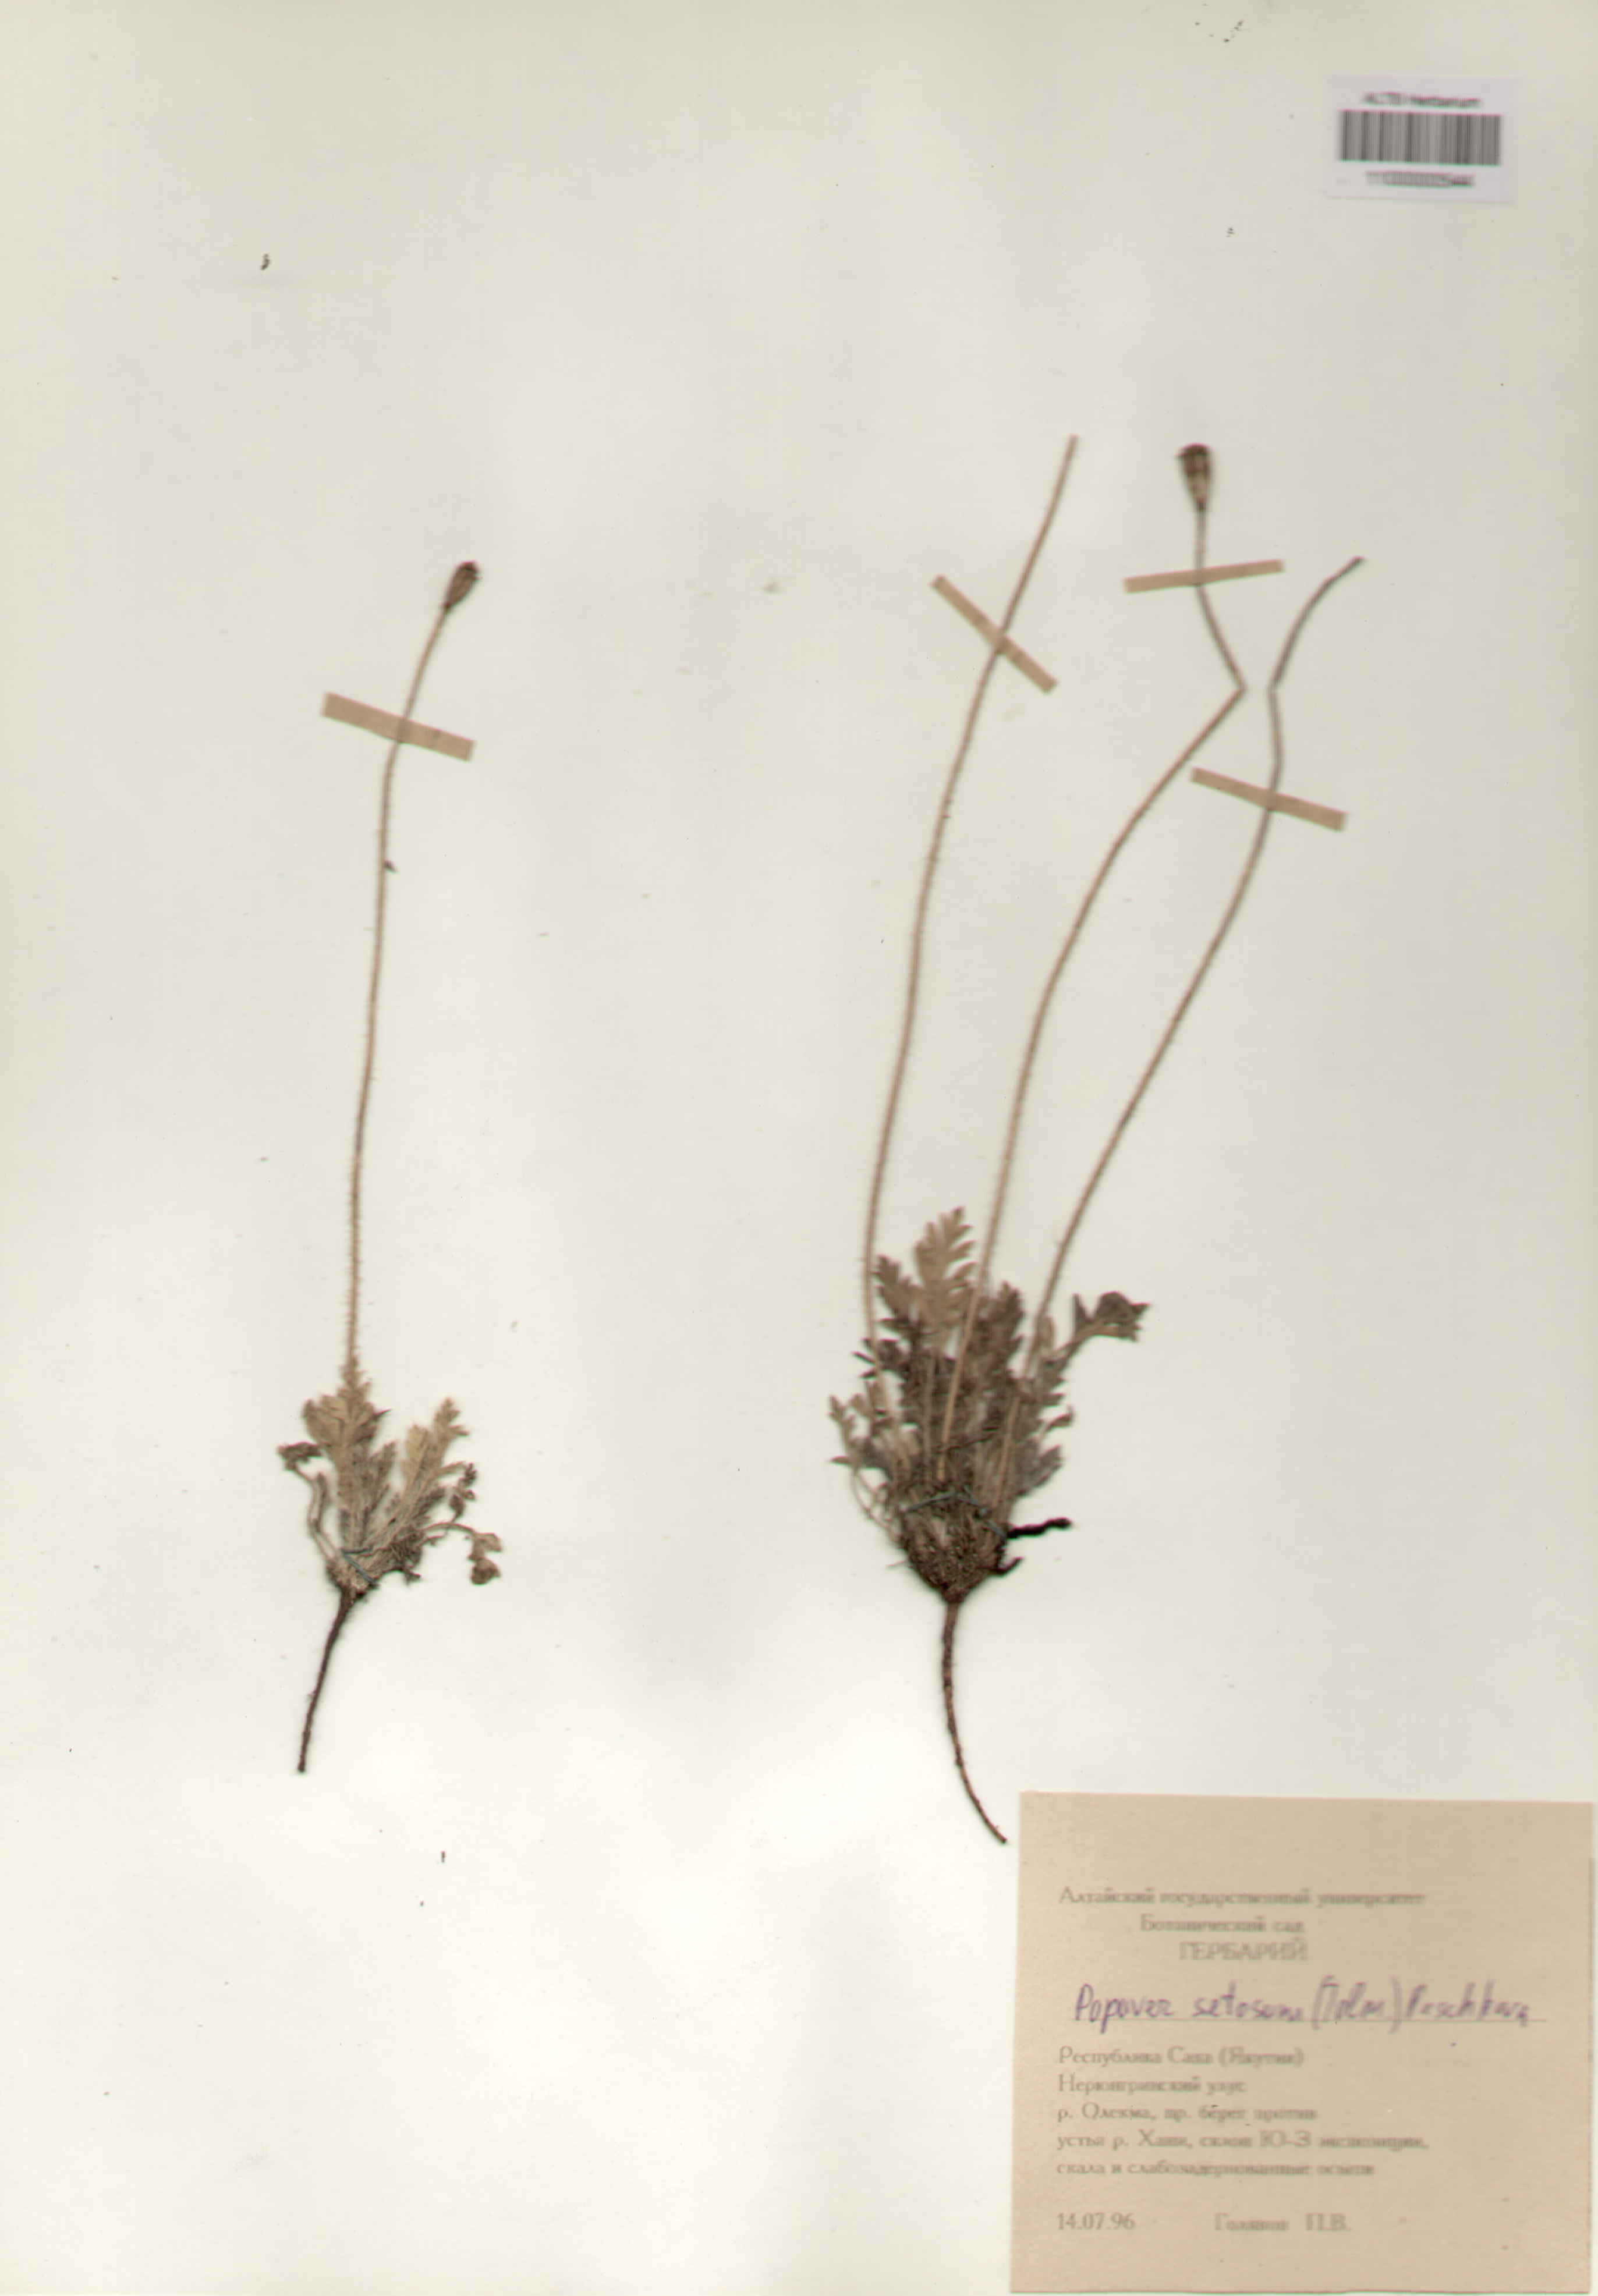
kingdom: Plantae
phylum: Tracheophyta
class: Magnoliopsida
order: Ranunculales
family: Papaveraceae
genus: Papaver
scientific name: Papaver setosum
